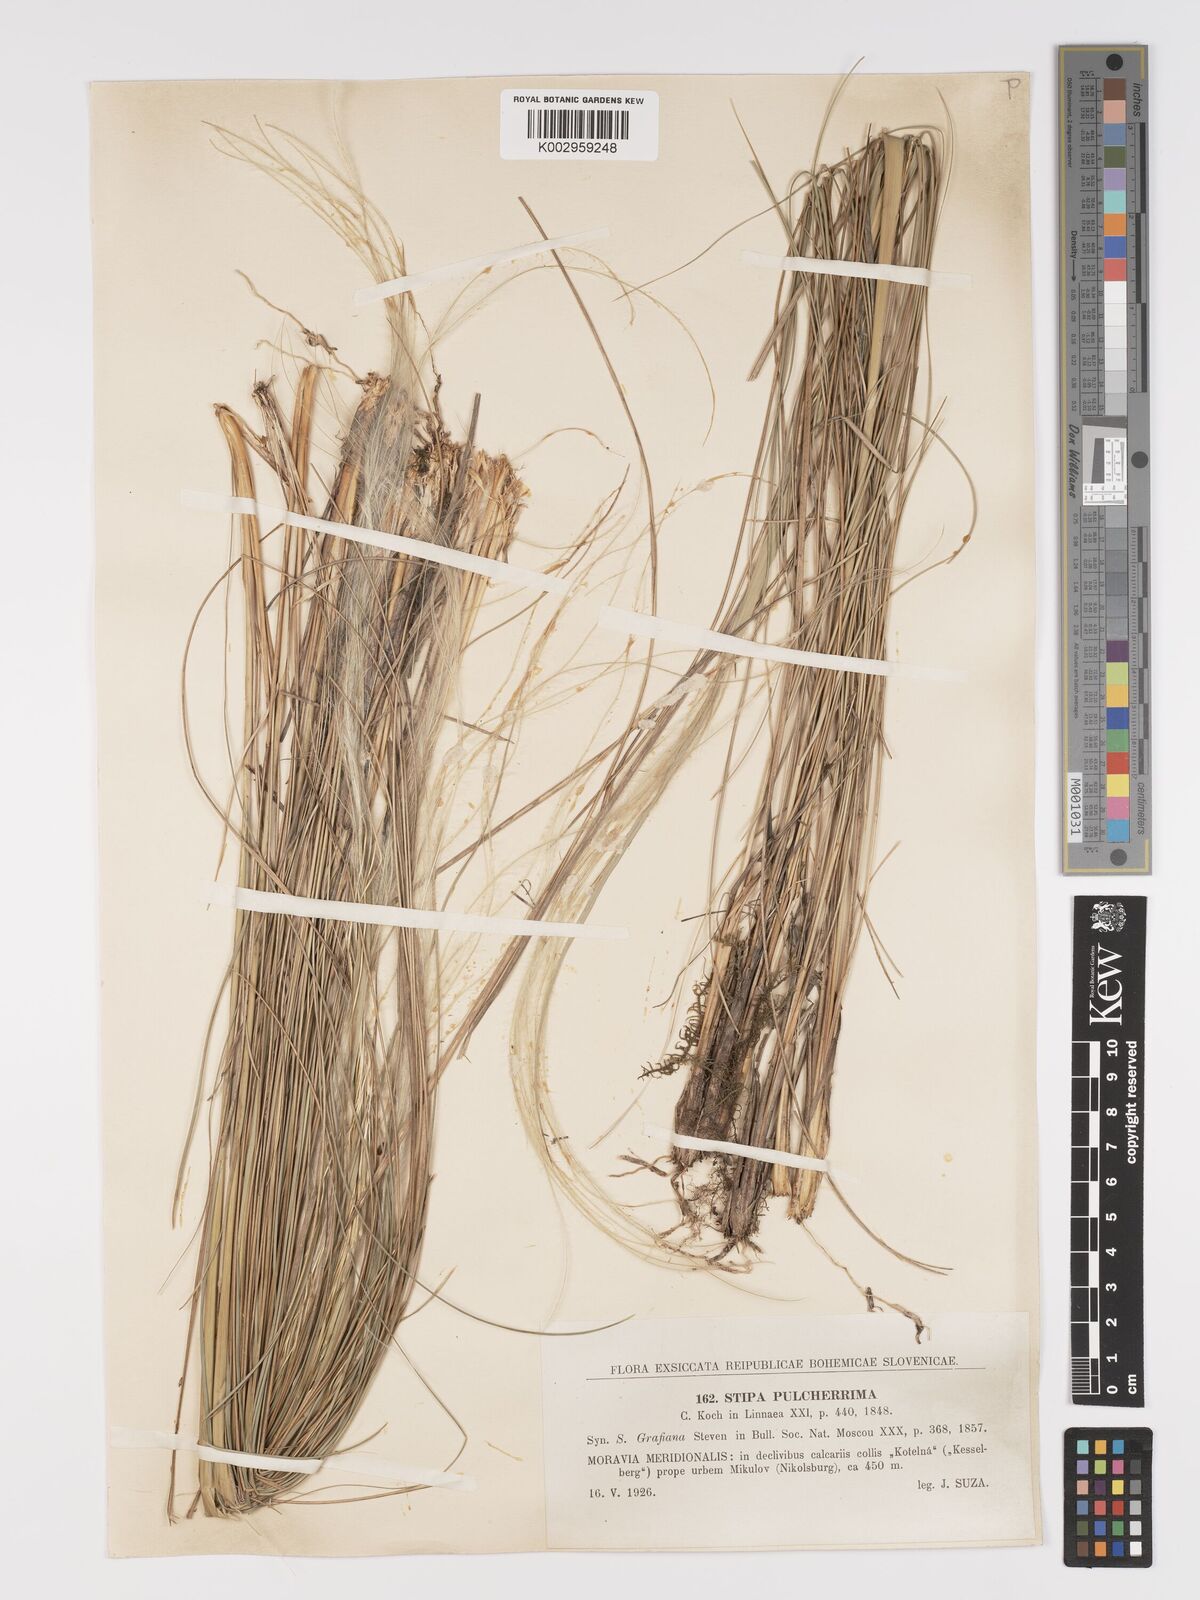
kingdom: Plantae
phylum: Tracheophyta
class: Liliopsida
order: Poales
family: Poaceae
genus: Stipa
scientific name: Stipa pulcherrima
